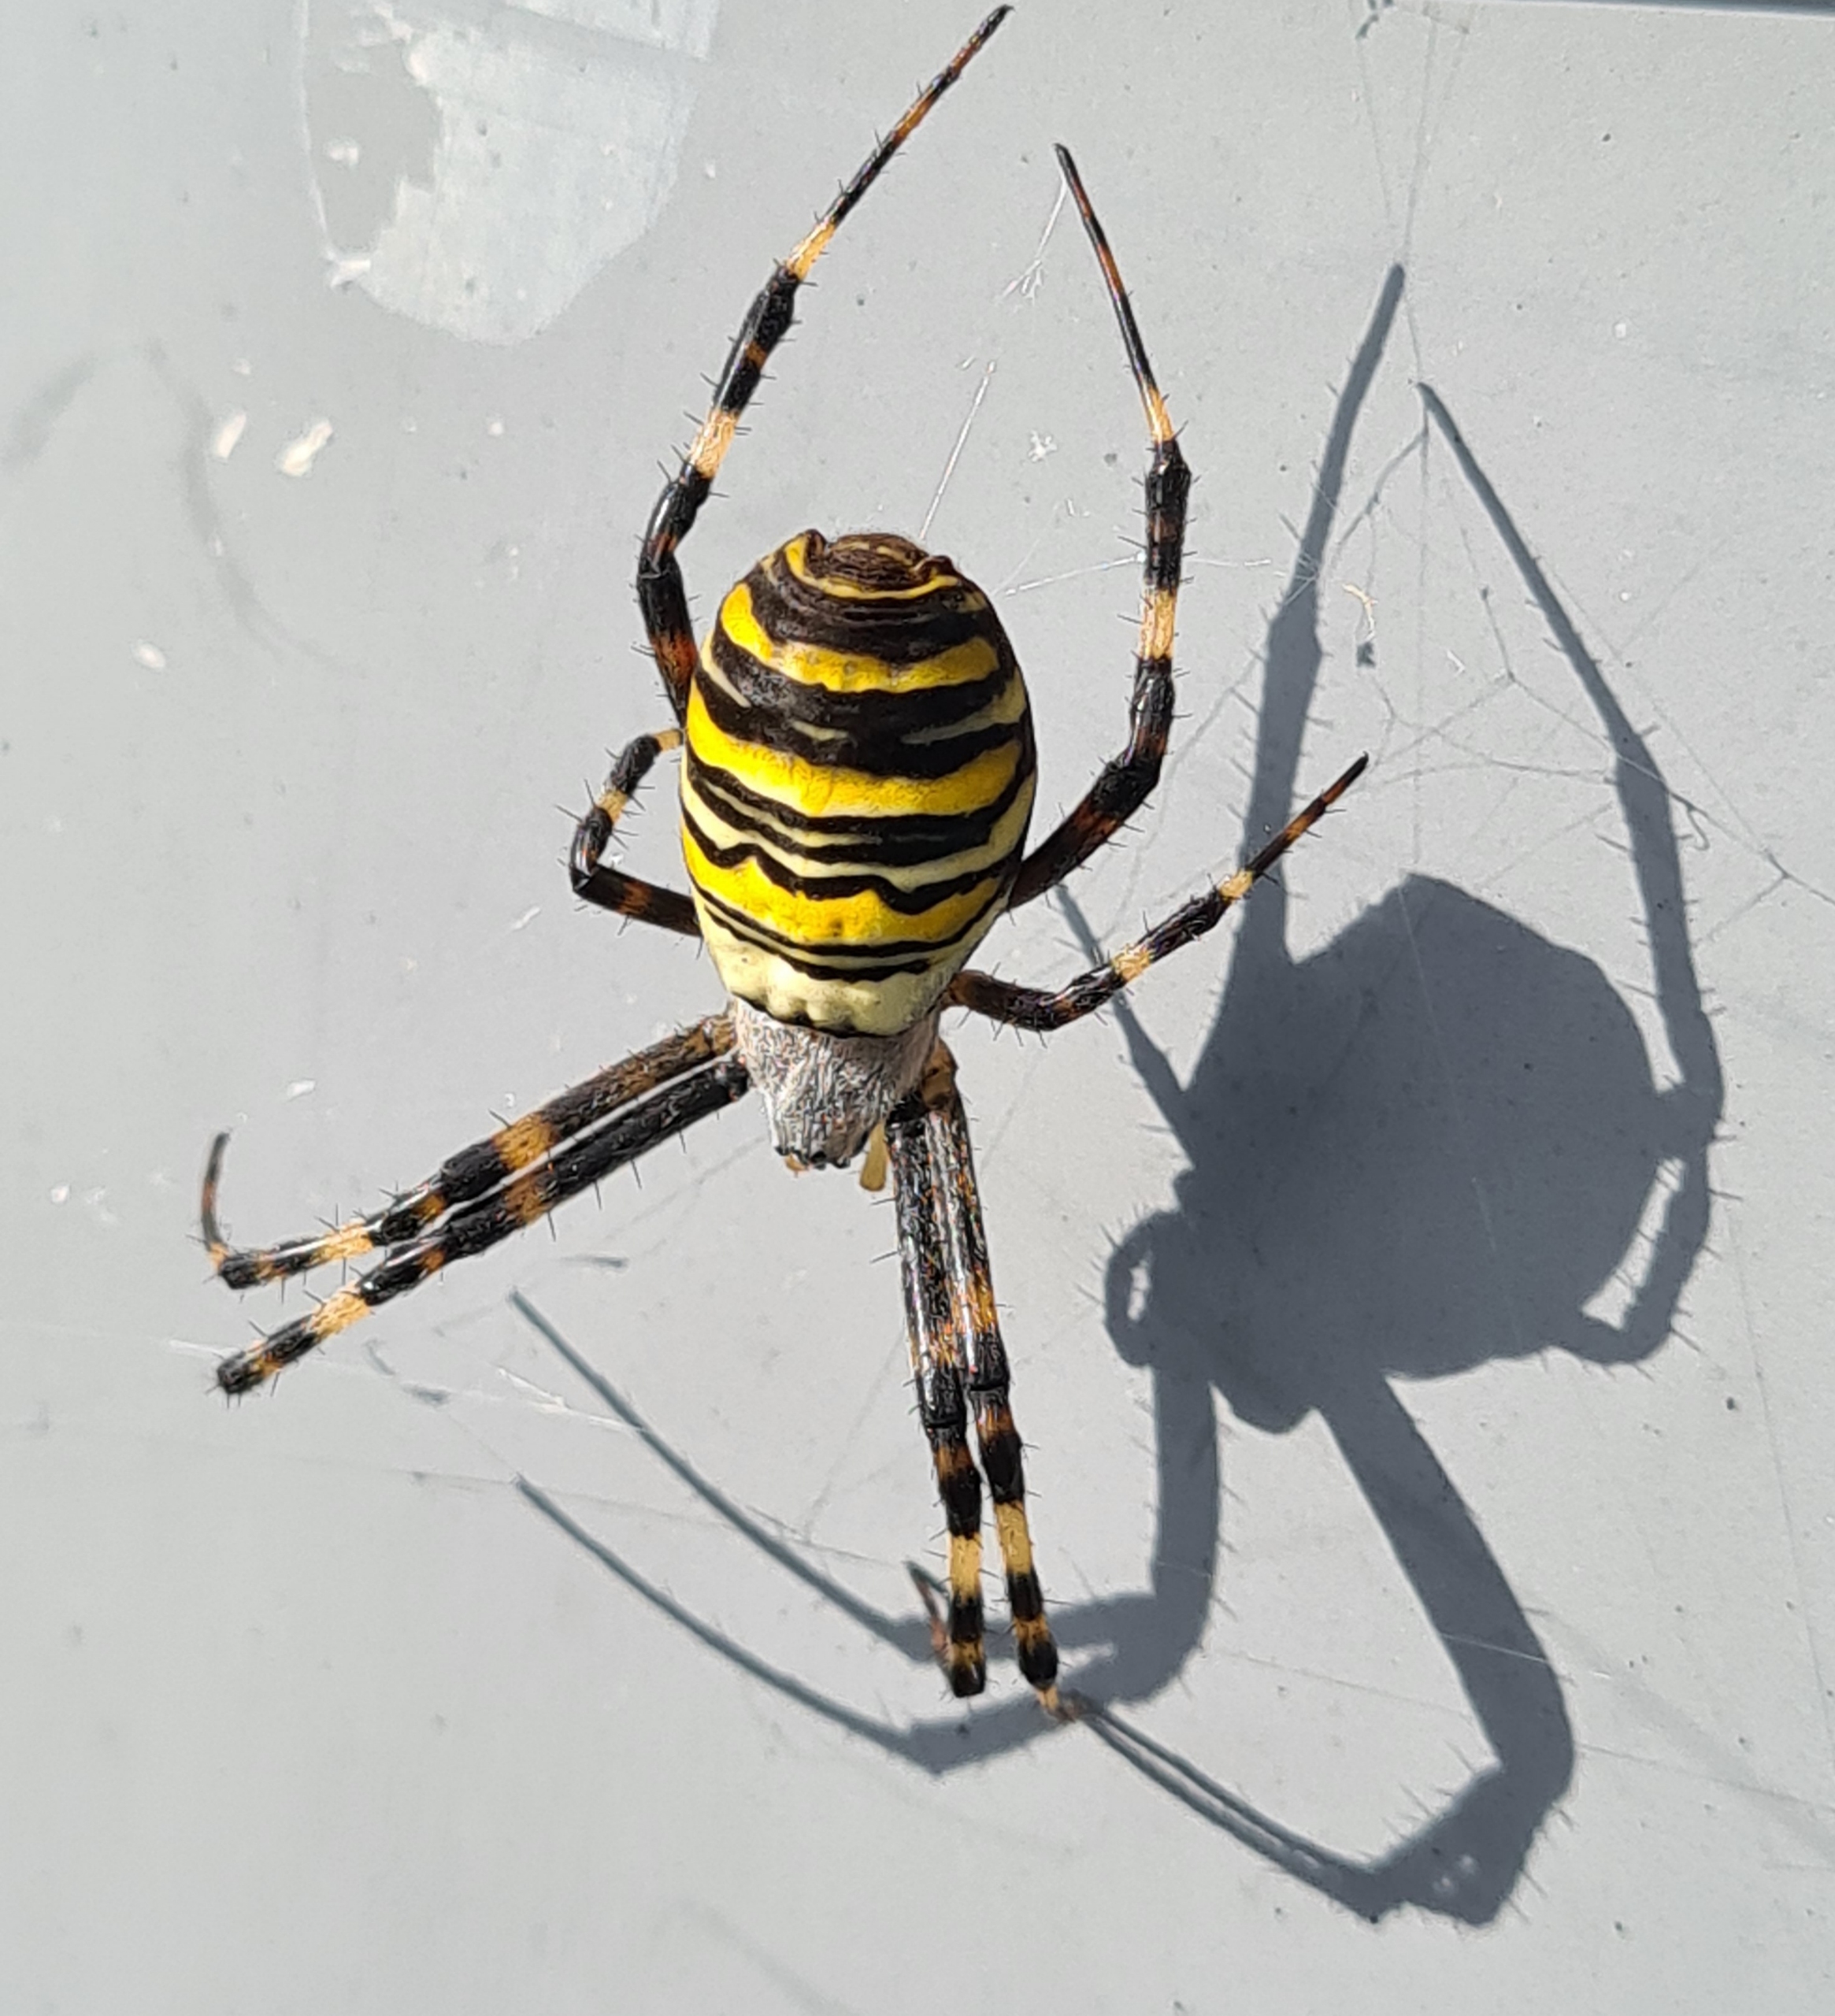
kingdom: Animalia
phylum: Arthropoda
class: Arachnida
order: Araneae
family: Araneidae
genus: Argiope
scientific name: Argiope bruennichi
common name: Hvepseedderkop
